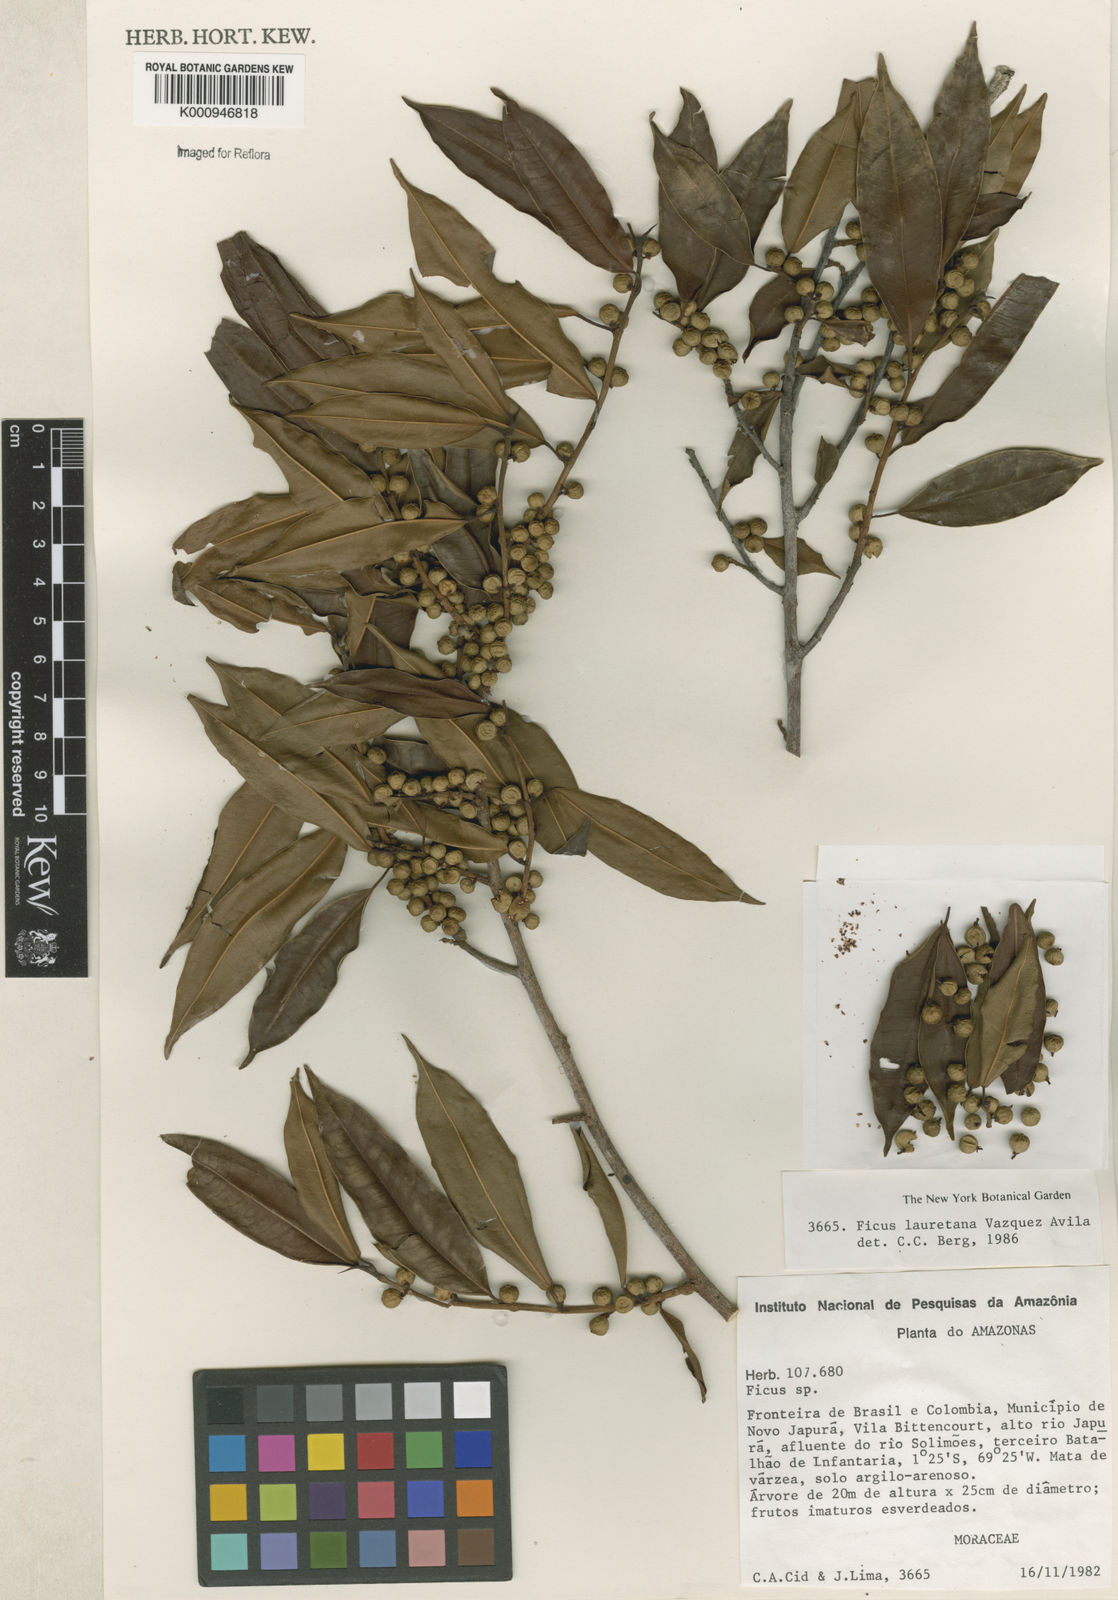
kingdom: Plantae
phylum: Tracheophyta
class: Magnoliopsida
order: Rosales
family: Moraceae
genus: Ficus
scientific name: Ficus
